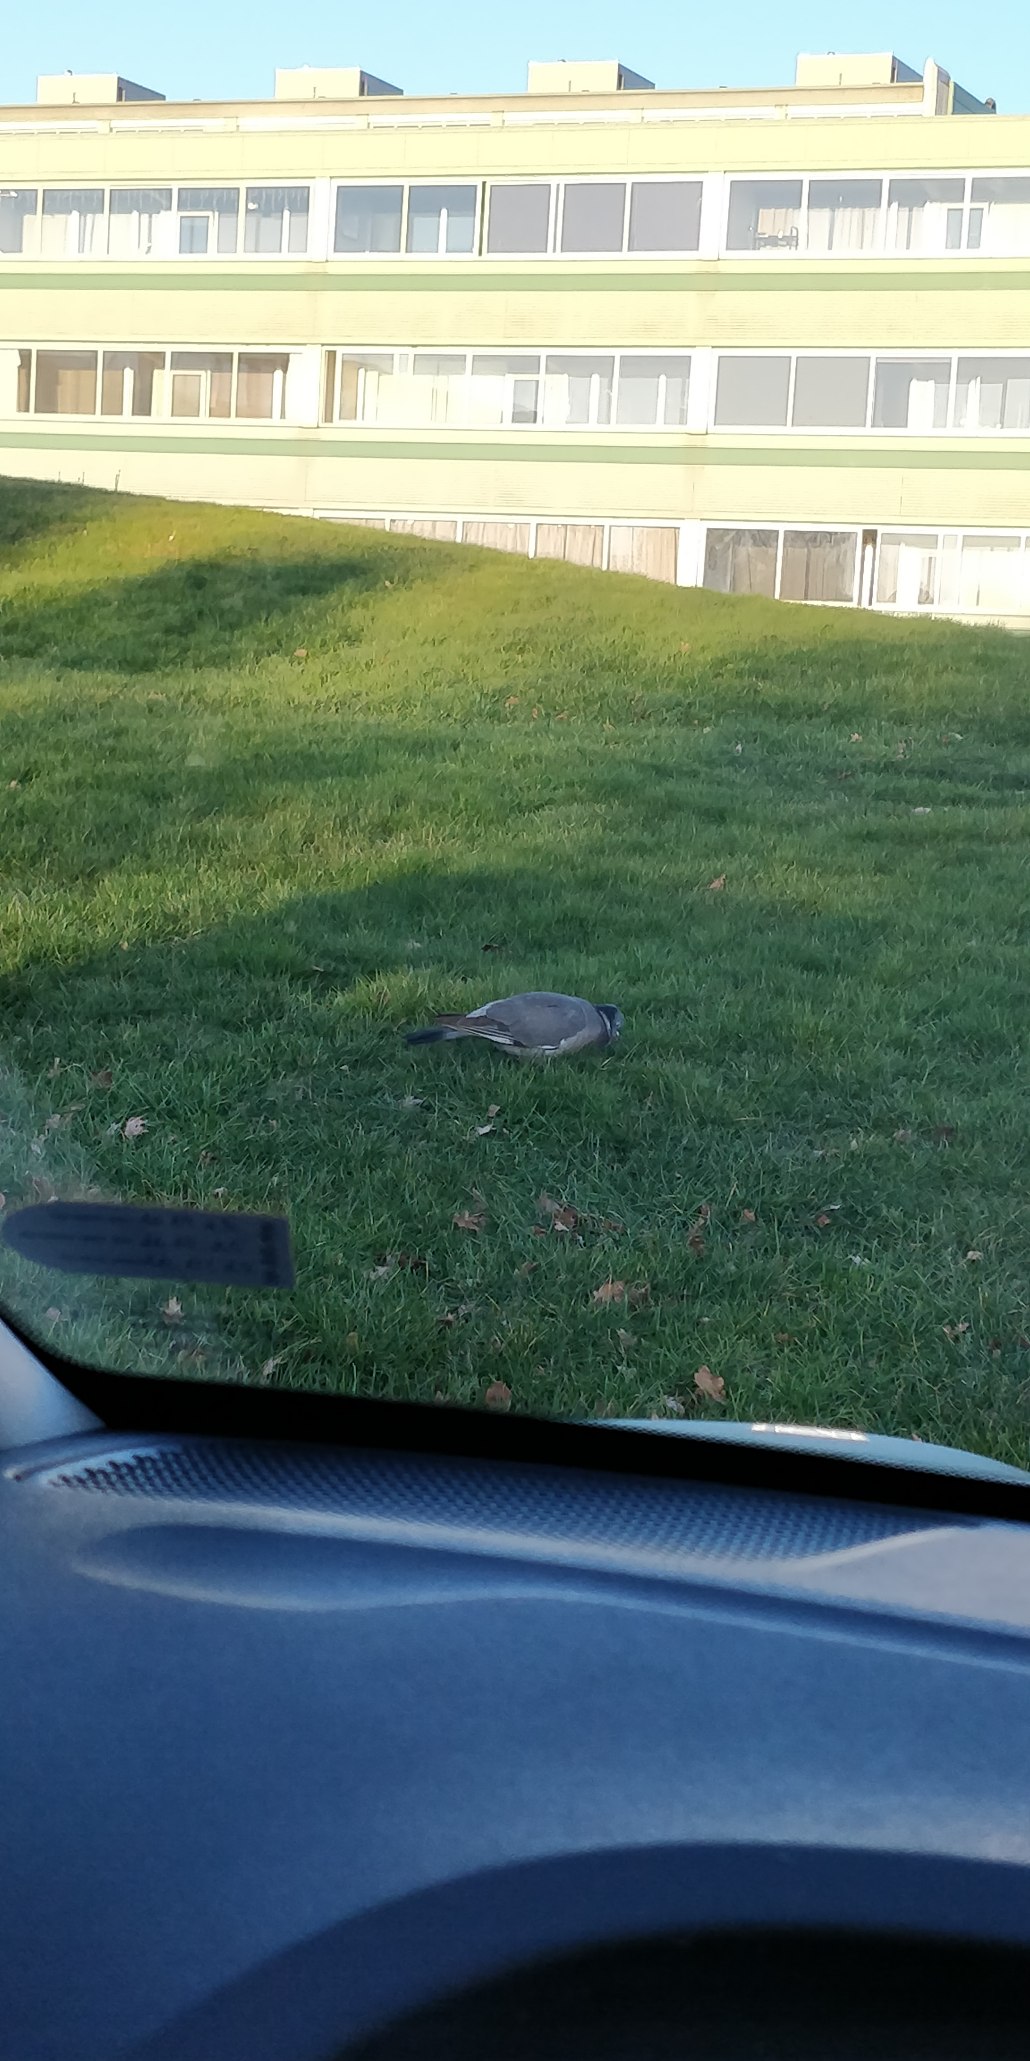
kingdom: Animalia
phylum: Chordata
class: Aves
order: Columbiformes
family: Columbidae
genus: Columba
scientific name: Columba palumbus
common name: Ringdue
